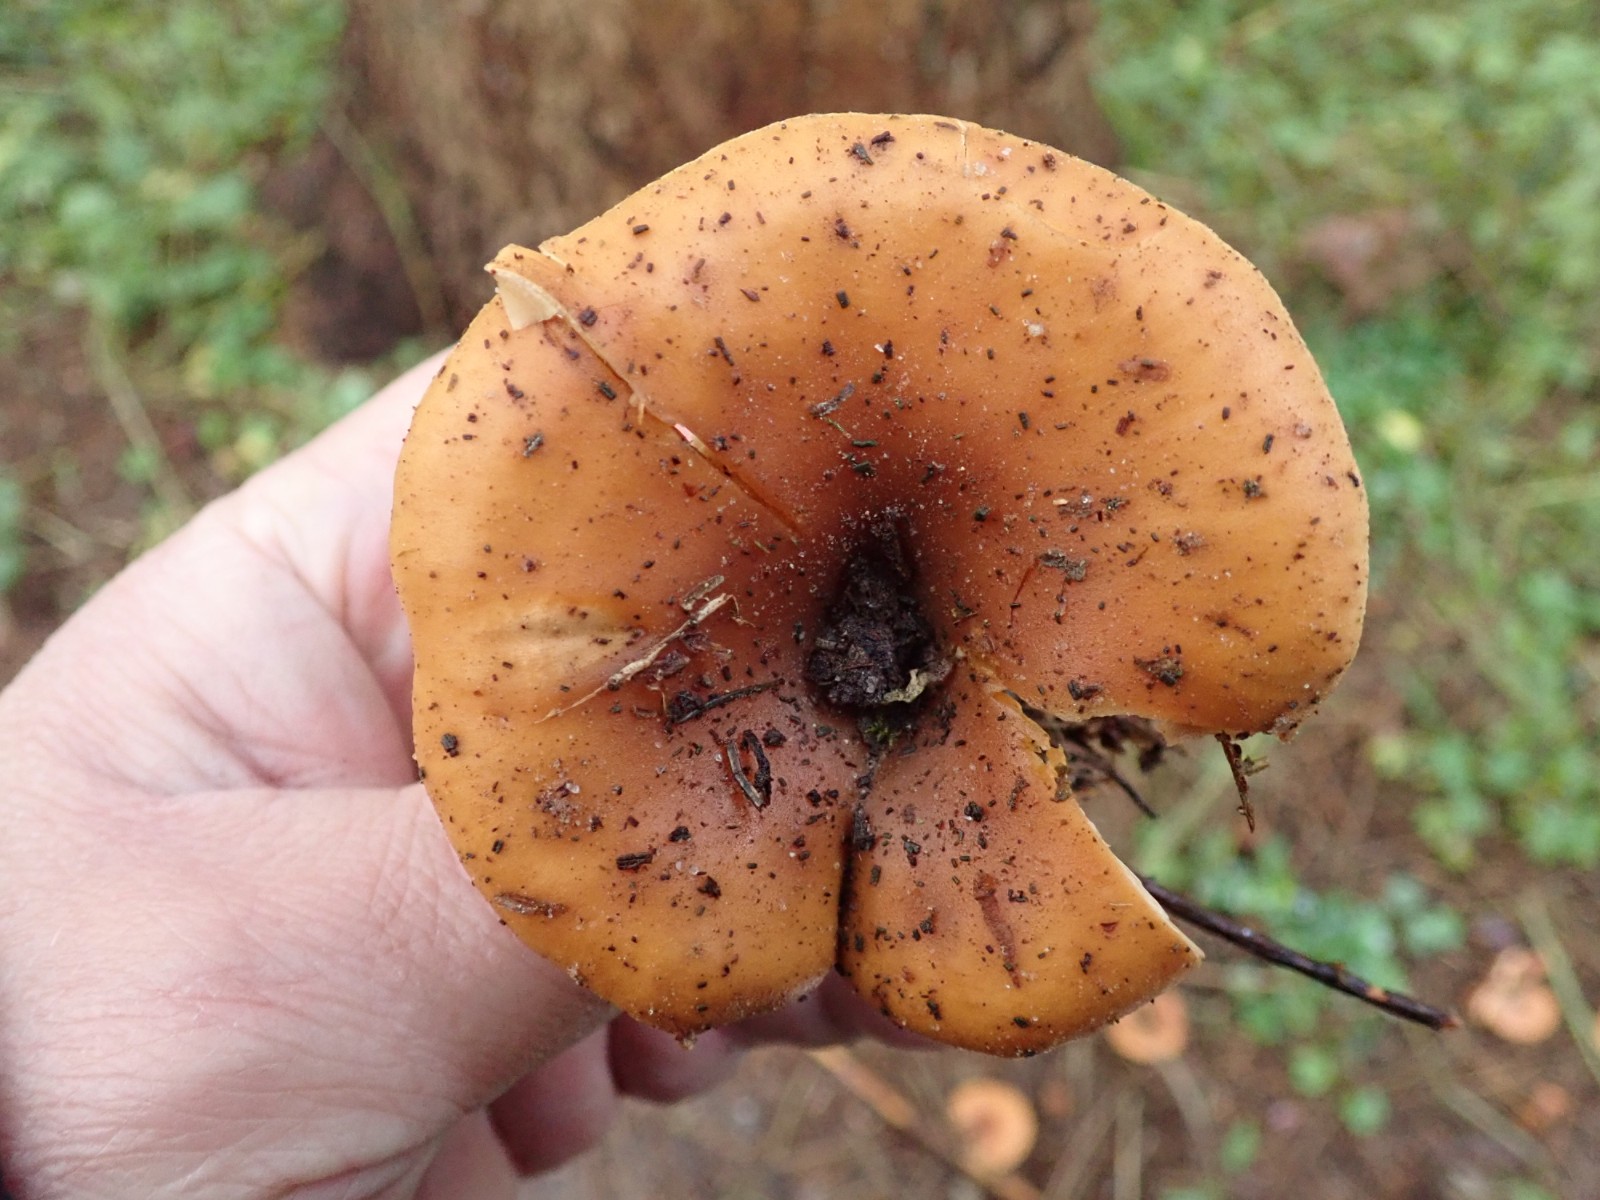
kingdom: Fungi
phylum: Basidiomycota
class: Agaricomycetes
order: Agaricales
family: Tricholomataceae
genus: Paralepista
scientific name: Paralepista flaccida
